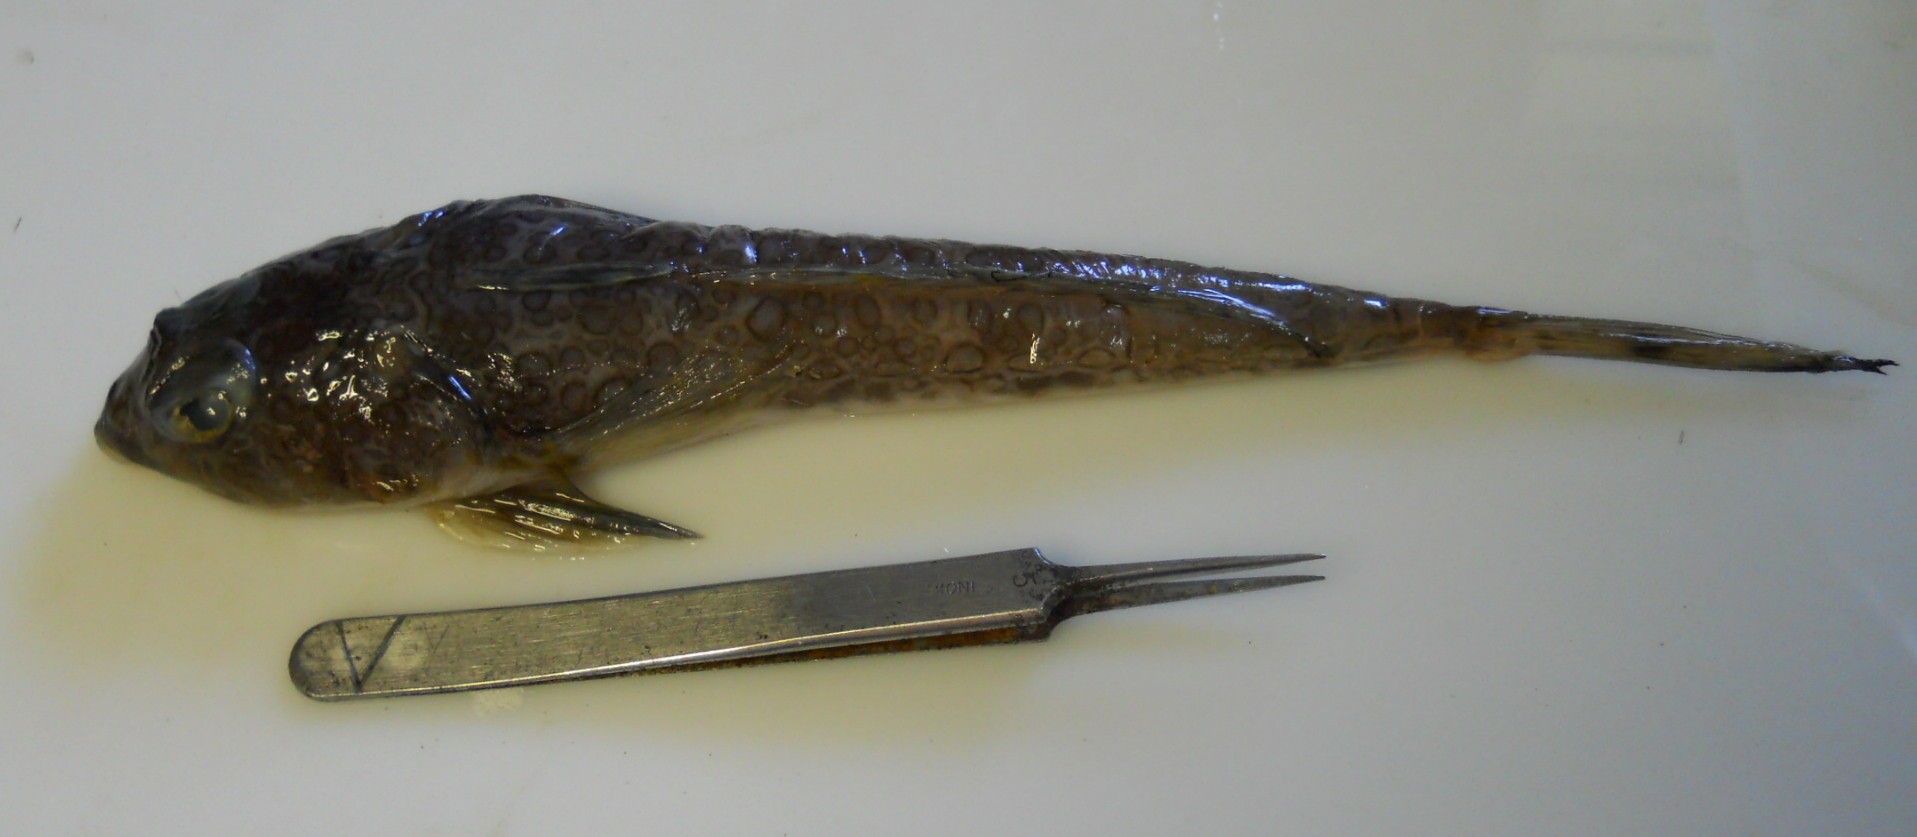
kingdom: Animalia
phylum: Chordata
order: Perciformes
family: Callionymidae
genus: Callionymus
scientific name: Callionymus regani
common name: Regan’s deepwater dragonet
